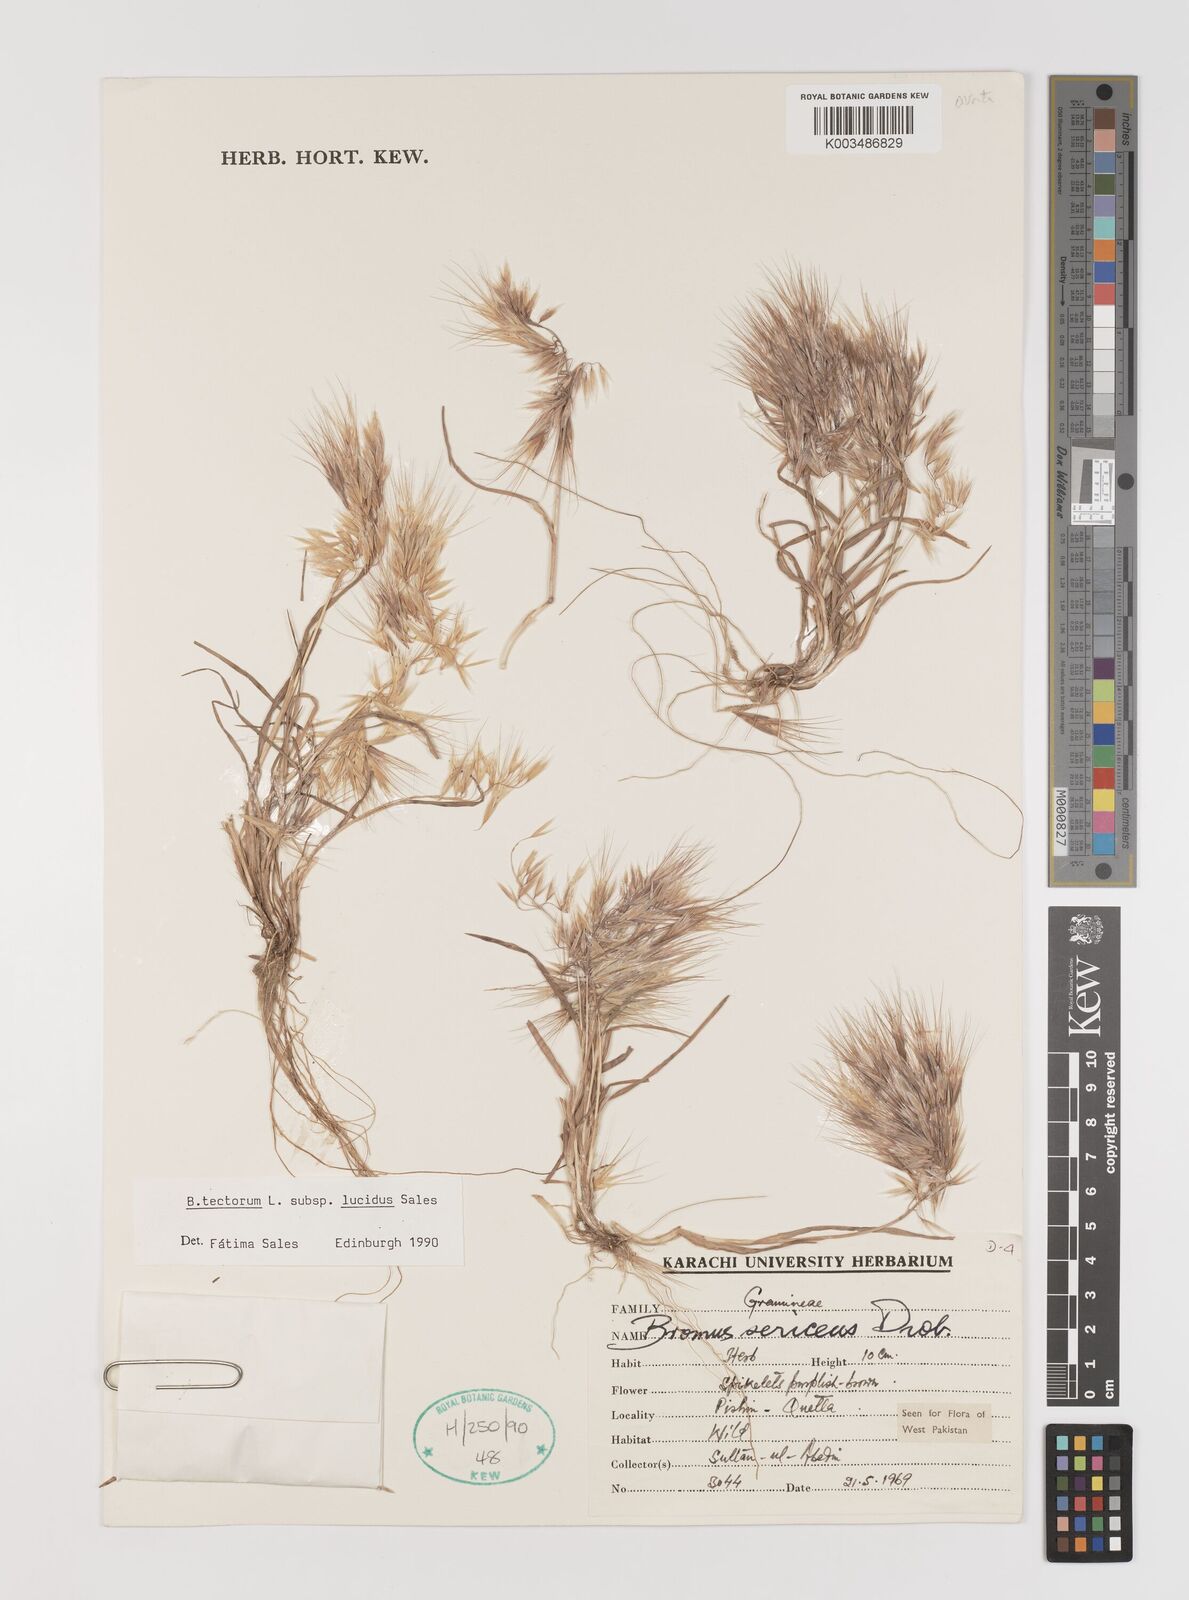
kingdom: Plantae
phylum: Tracheophyta
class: Liliopsida
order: Poales
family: Poaceae
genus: Bromus
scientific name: Bromus tectorum
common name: Cheatgrass
